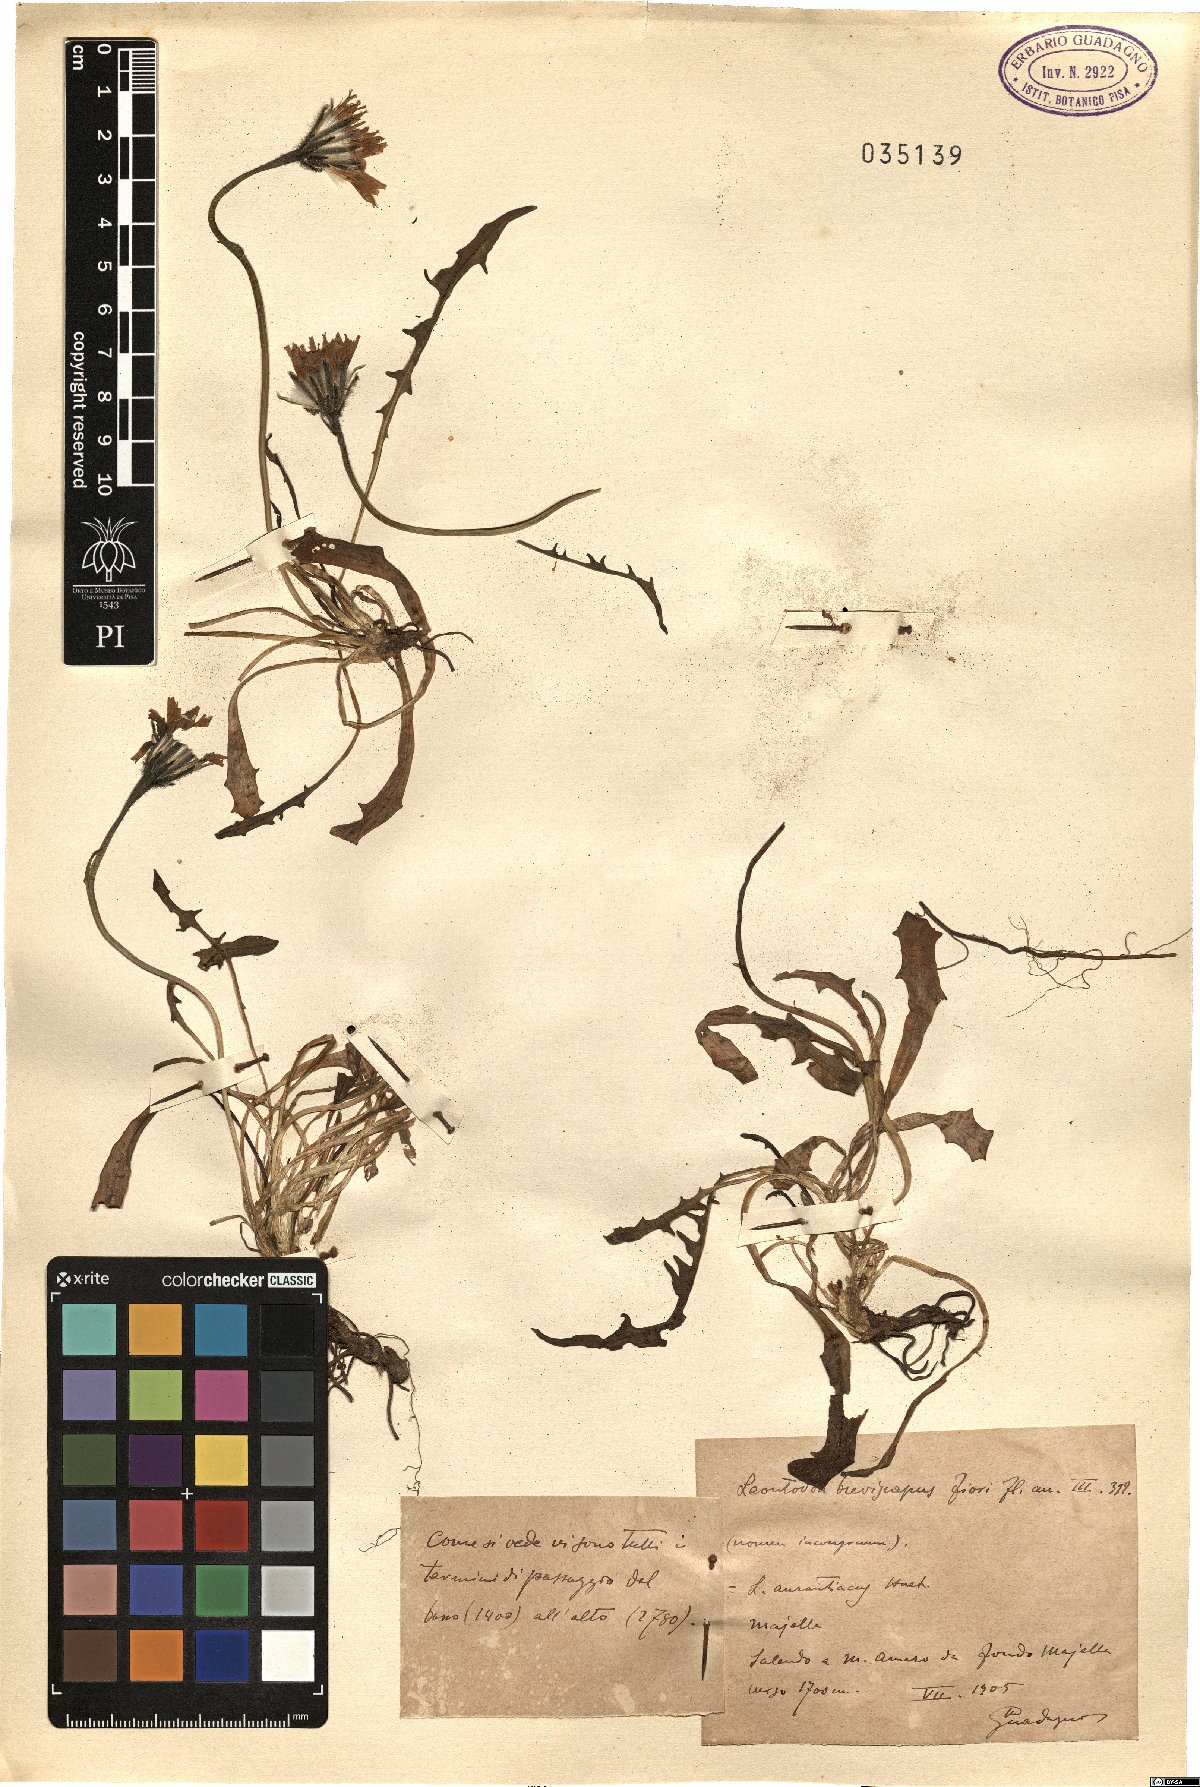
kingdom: Plantae
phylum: Tracheophyta
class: Magnoliopsida
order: Asterales
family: Asteraceae
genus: Leontodon
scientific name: Leontodon
